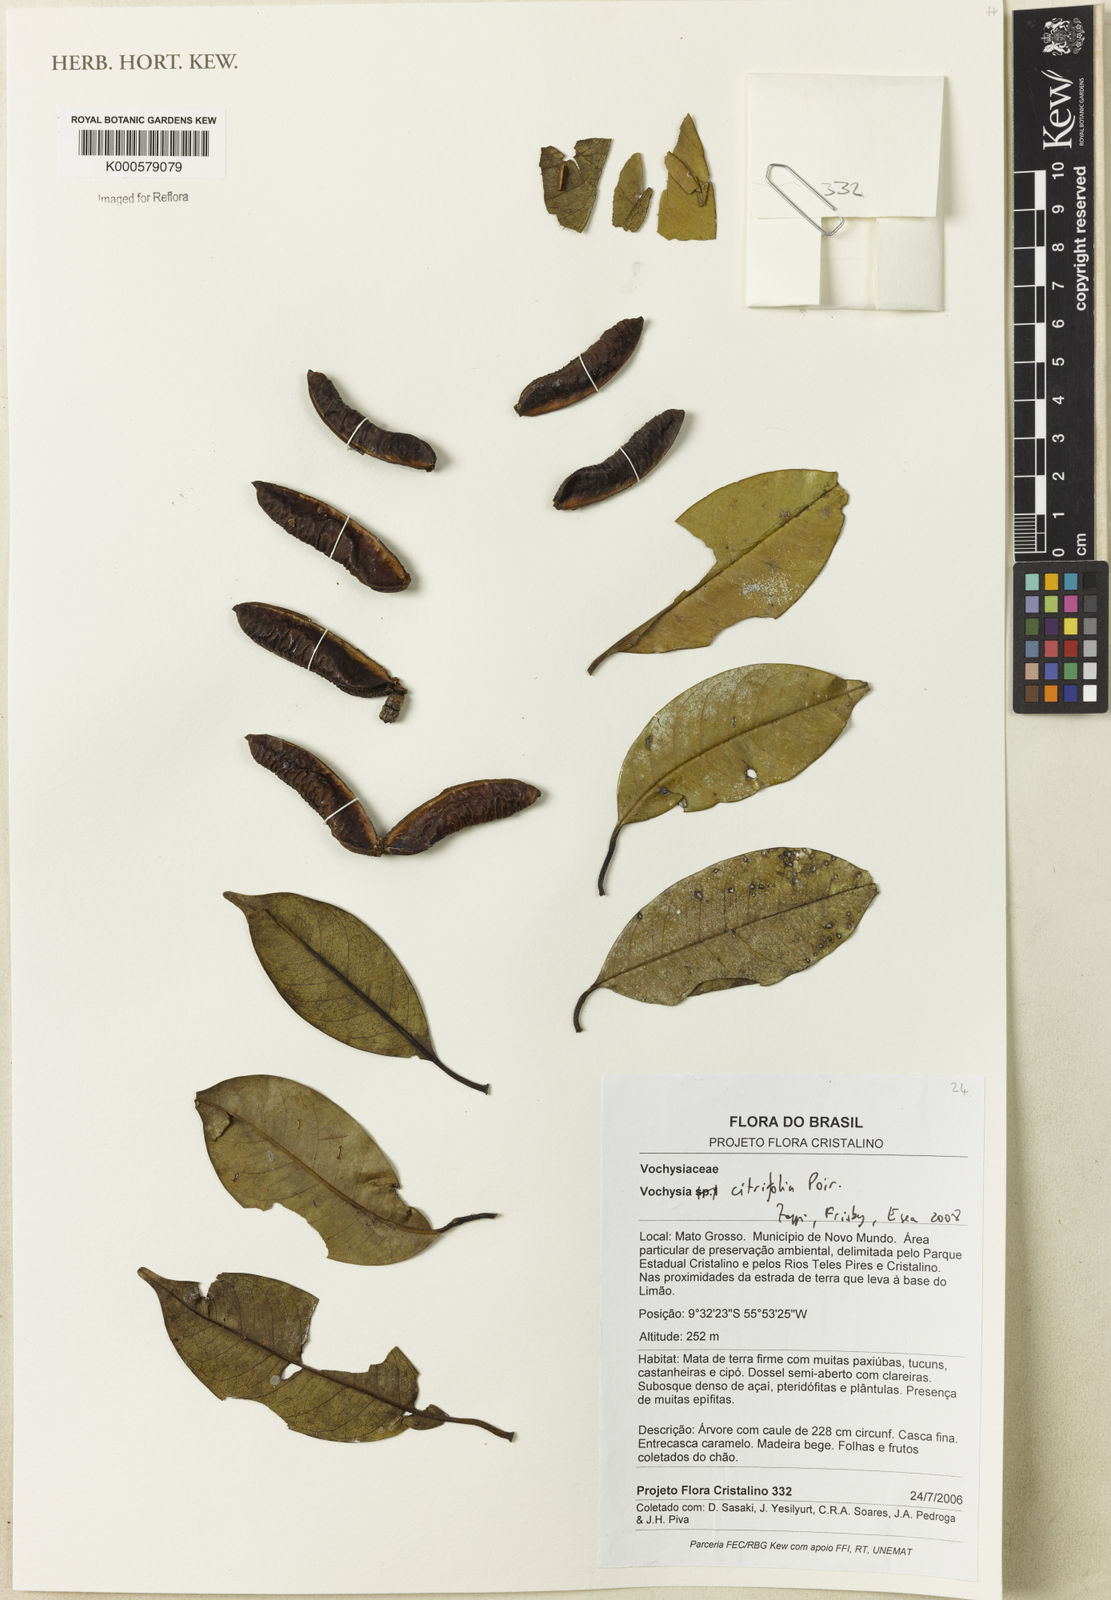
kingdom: Plantae
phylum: Tracheophyta
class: Magnoliopsida
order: Myrtales
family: Vochysiaceae
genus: Vochysia
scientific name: Vochysia citrifolia
